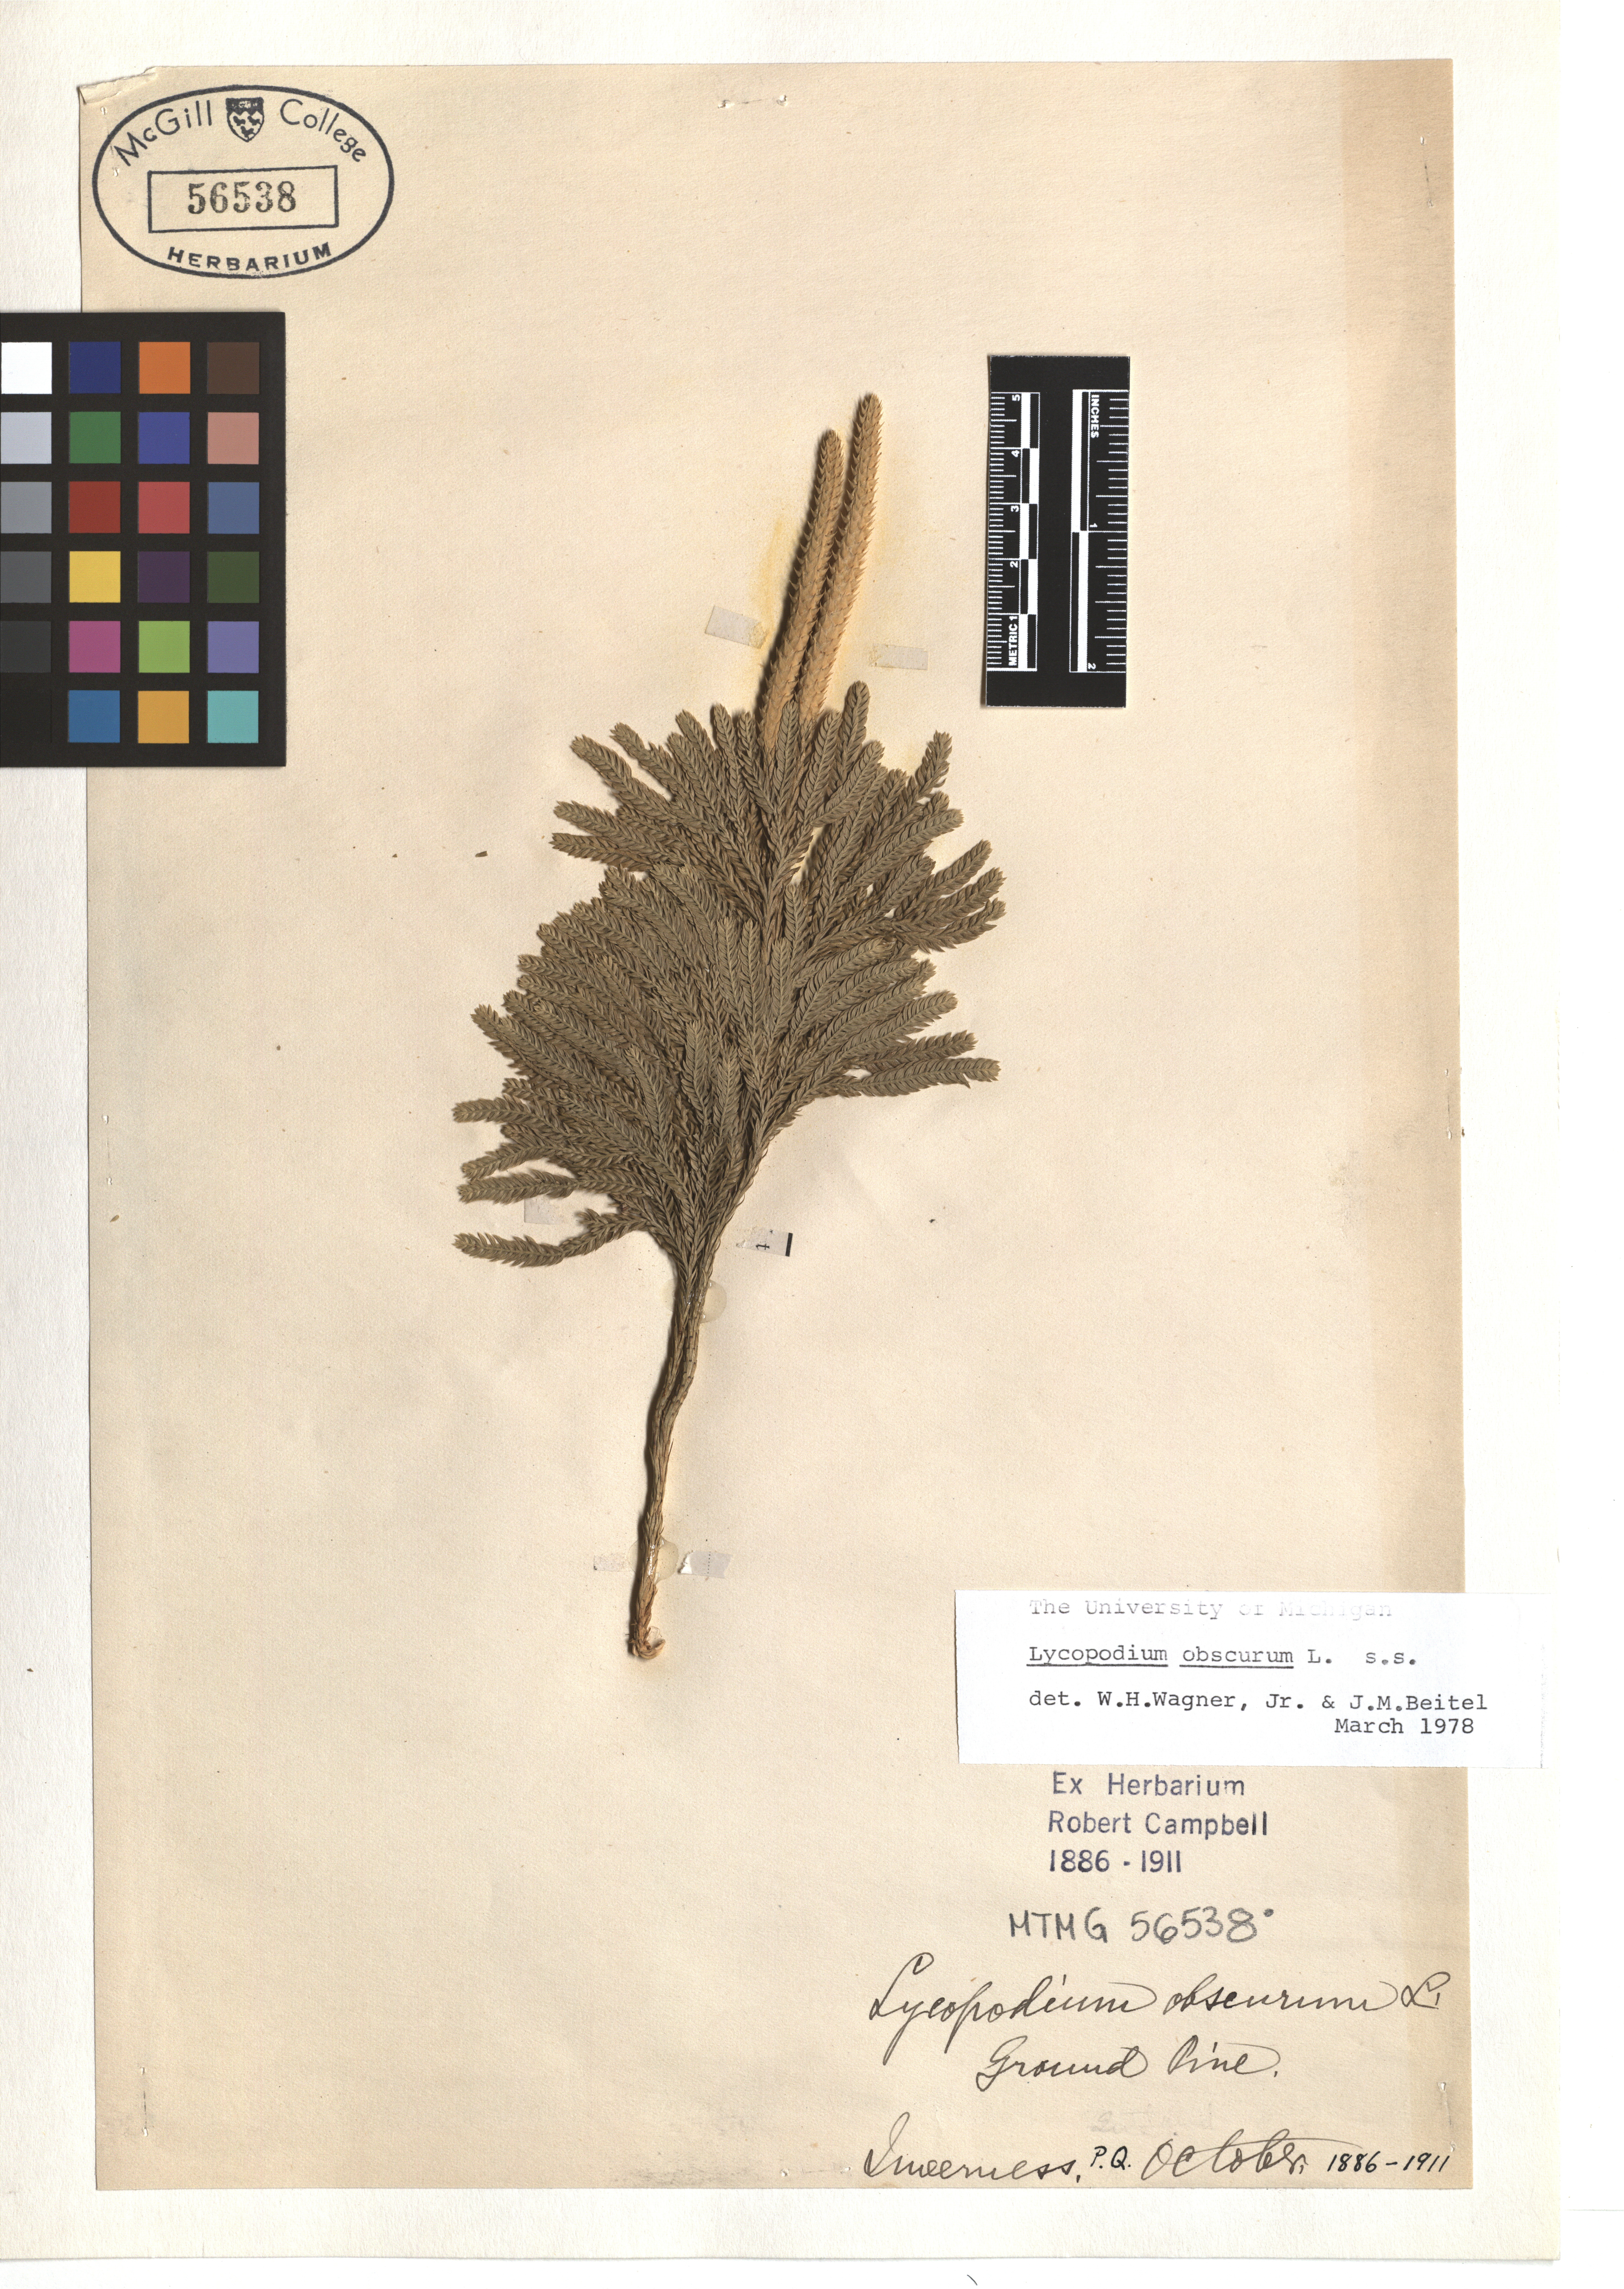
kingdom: Plantae
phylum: Tracheophyta
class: Lycopodiopsida
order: Lycopodiales
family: Lycopodiaceae
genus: Dendrolycopodium
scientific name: Dendrolycopodium obscurum
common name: Common ground-pine
